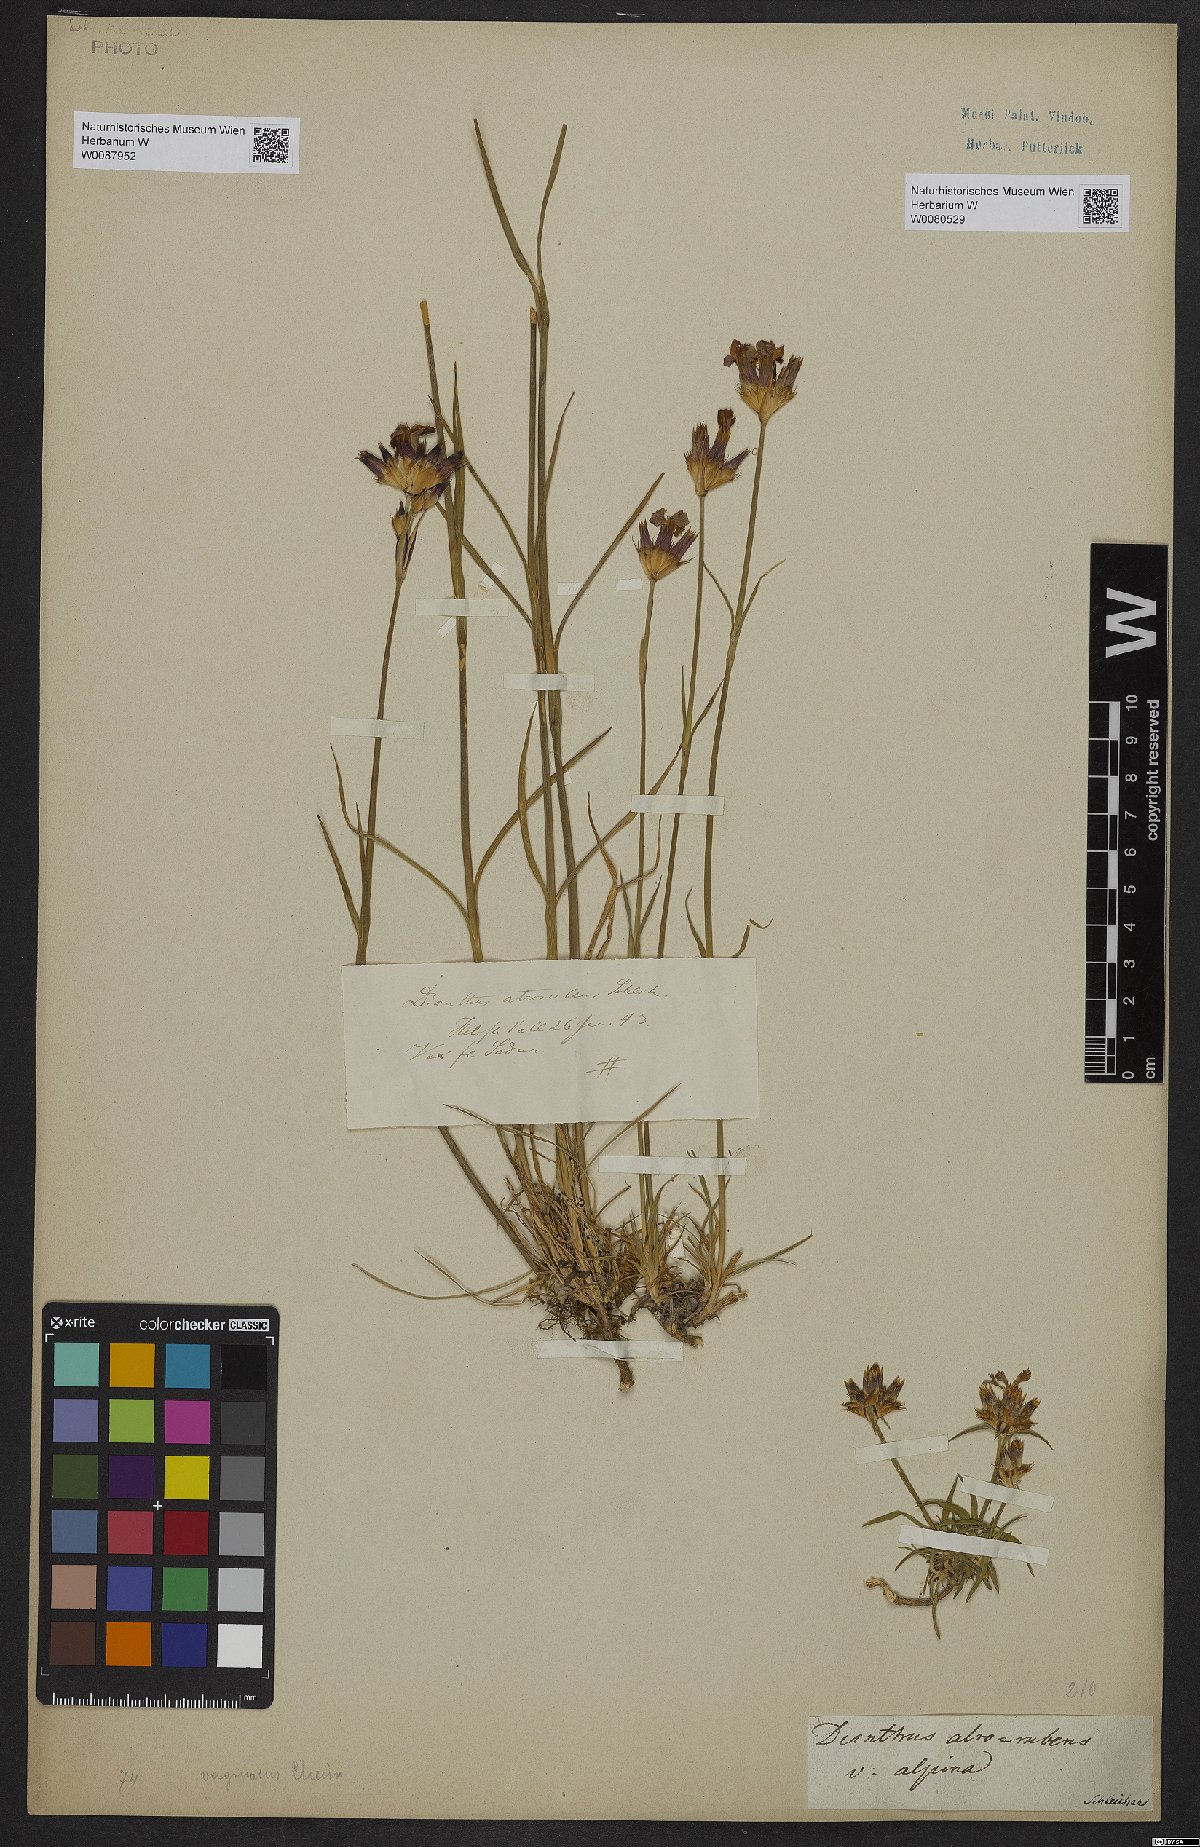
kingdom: Plantae
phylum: Tracheophyta
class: Magnoliopsida
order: Caryophyllales
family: Caryophyllaceae
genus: Dianthus
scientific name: Dianthus carthusianorum
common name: Carthusian pink
